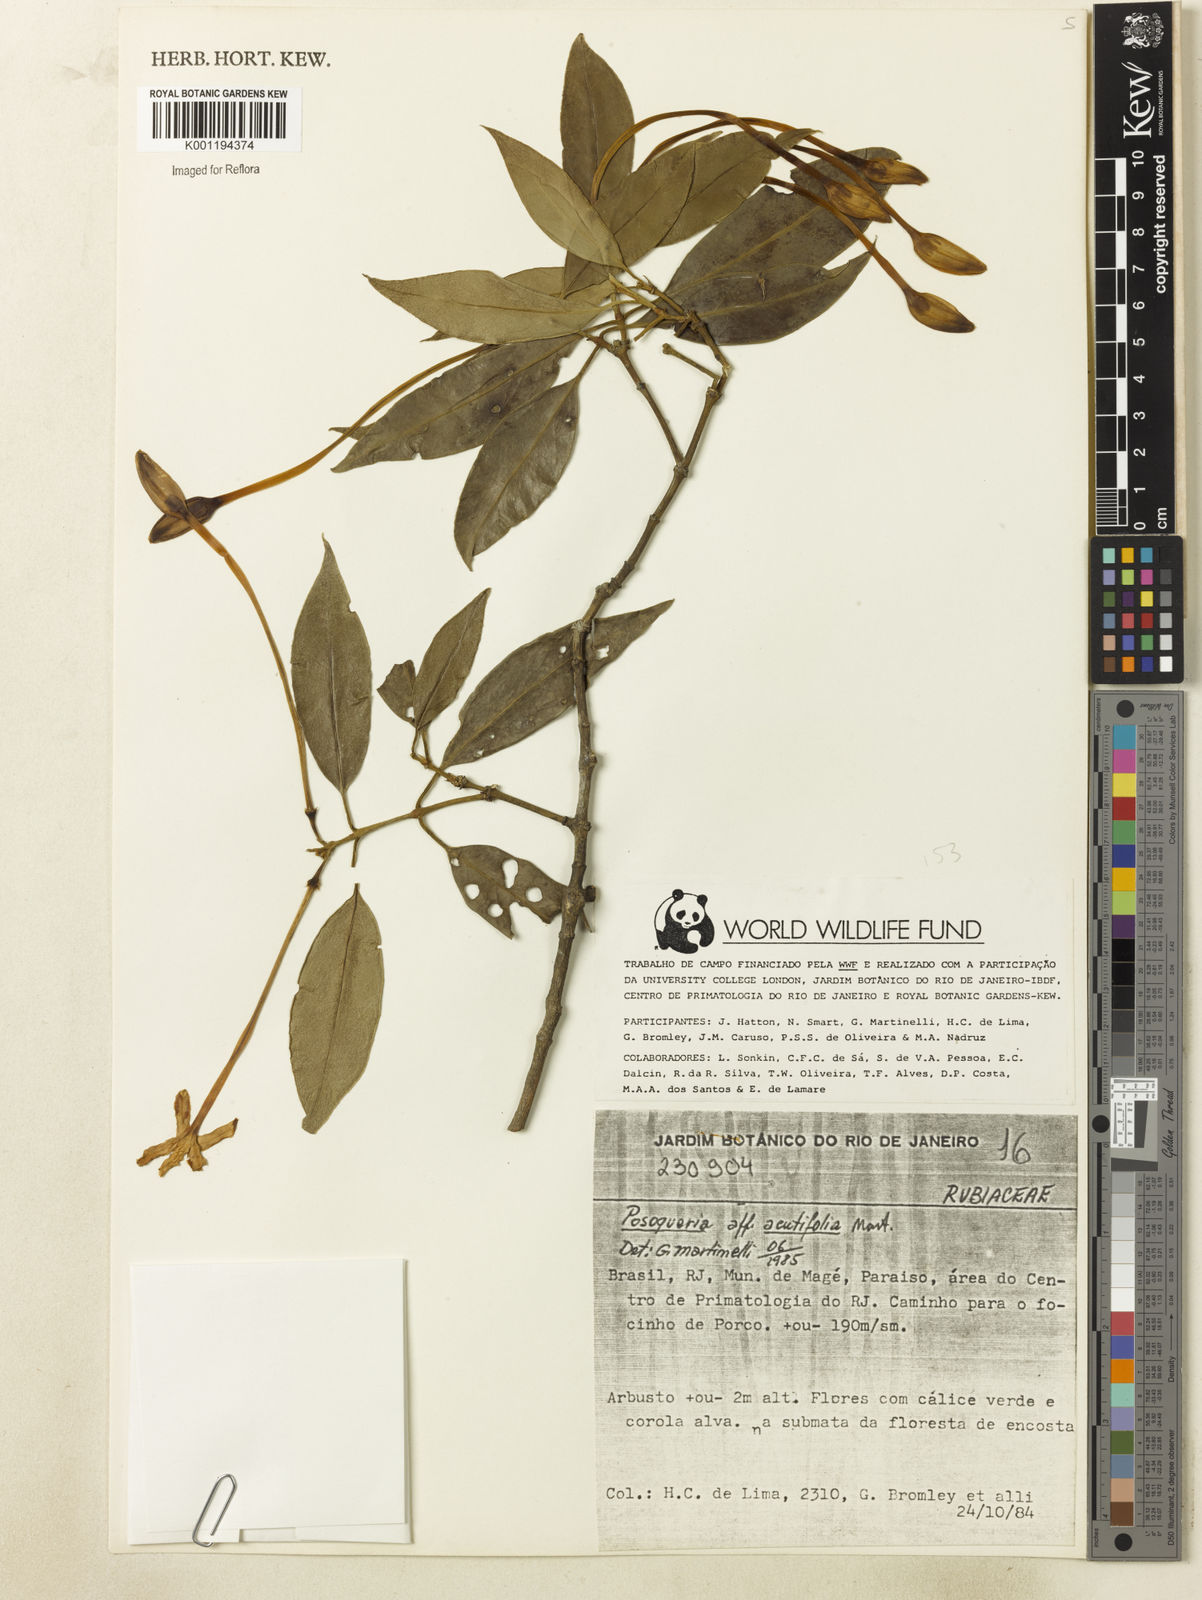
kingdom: Plantae
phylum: Tracheophyta
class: Magnoliopsida
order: Gentianales
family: Rubiaceae
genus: Posoqueria
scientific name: Posoqueria acutifolia
